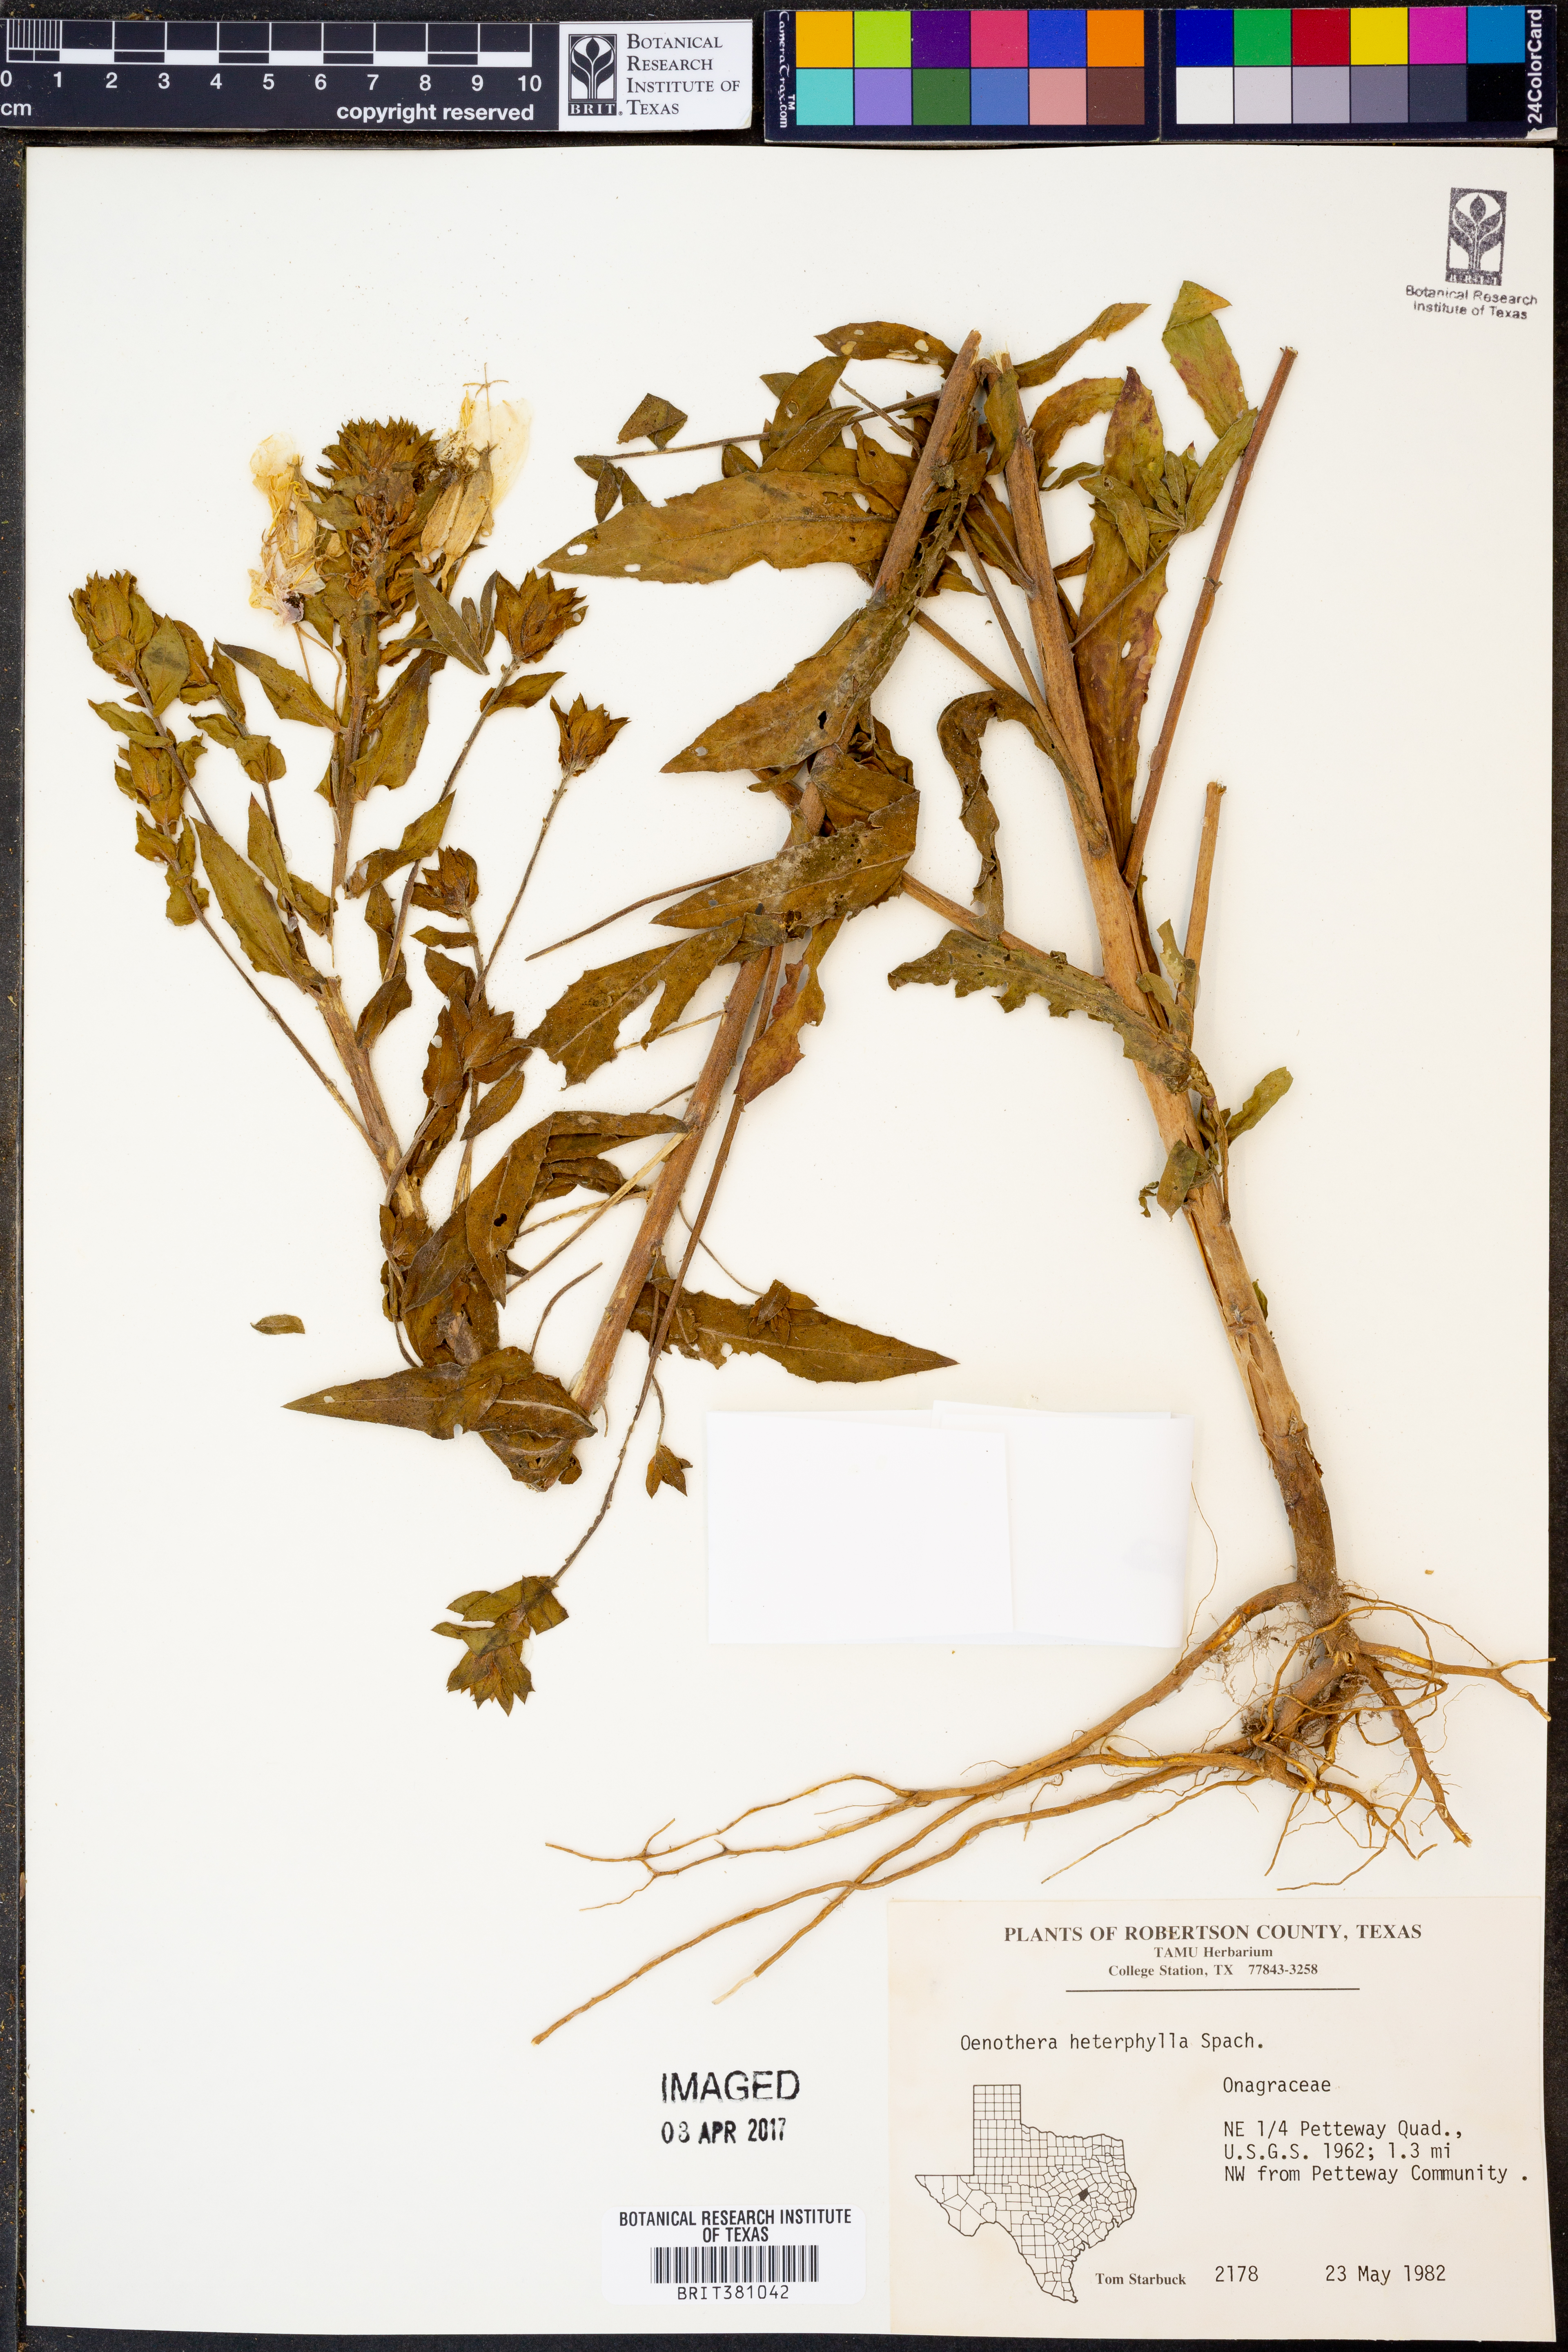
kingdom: Plantae
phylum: Tracheophyta
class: Magnoliopsida
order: Myrtales
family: Onagraceae
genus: Camissonia
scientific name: Camissonia dentata
